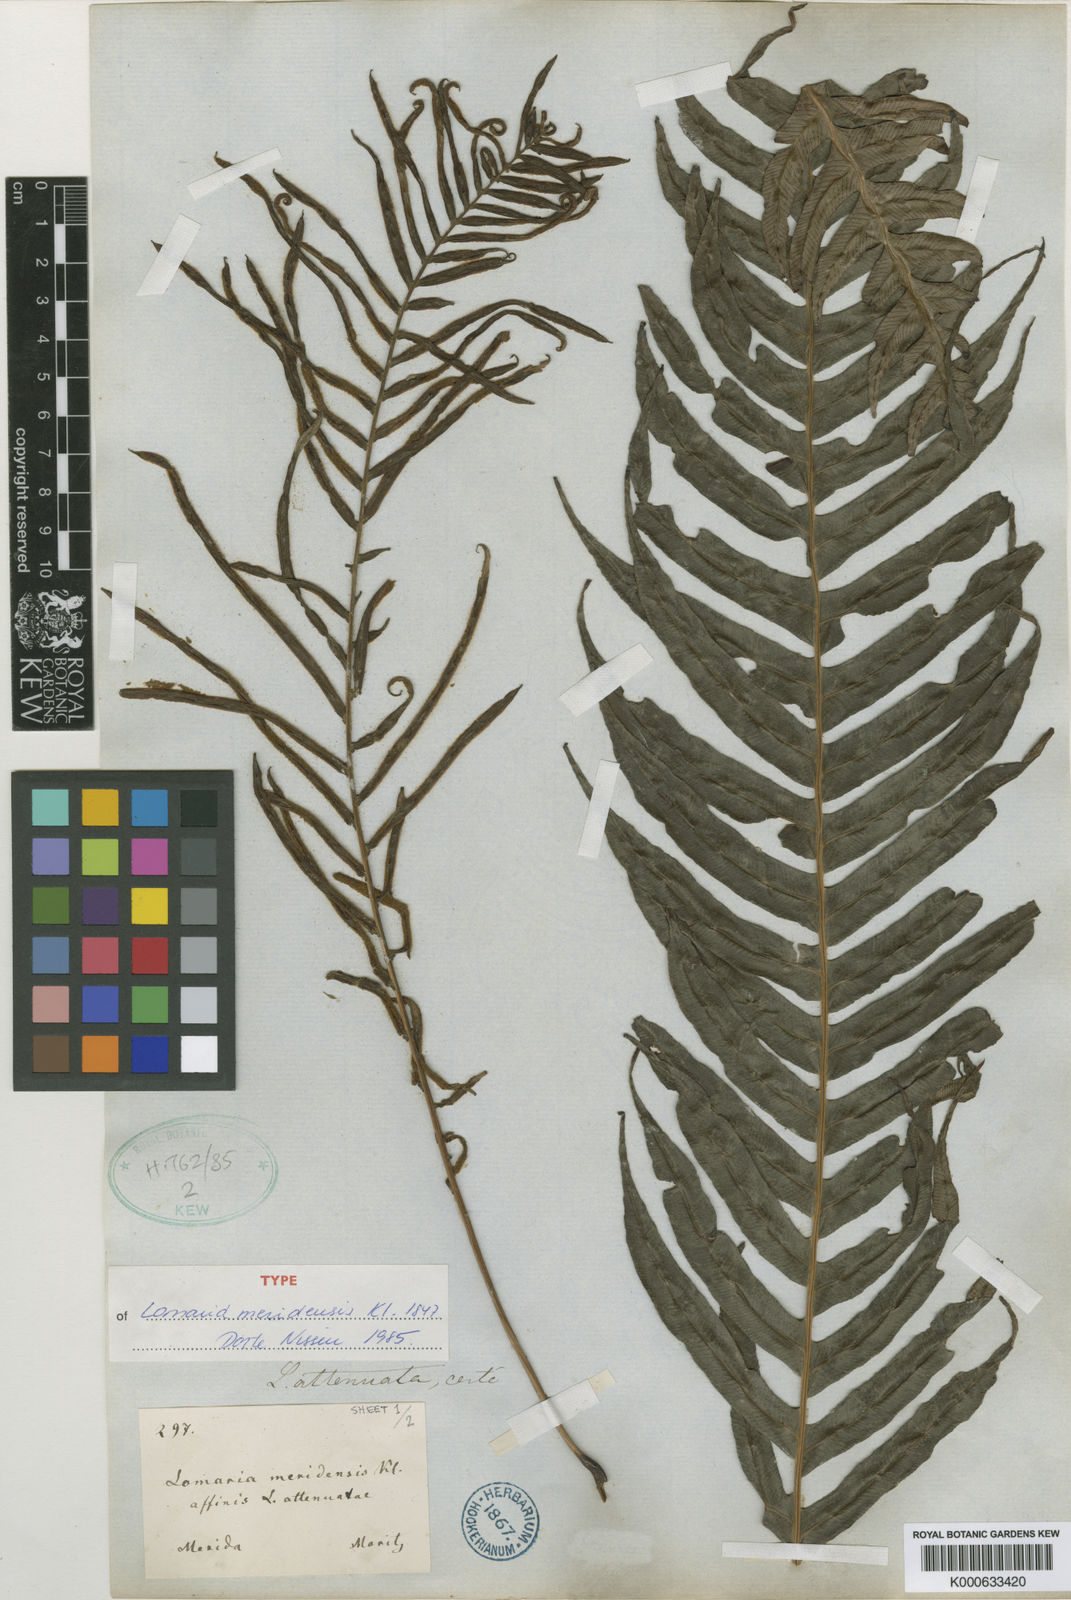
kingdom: Plantae
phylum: Tracheophyta
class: Polypodiopsida
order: Polypodiales
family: Blechnaceae
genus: Lomaridium
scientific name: Lomaridium binervatum
